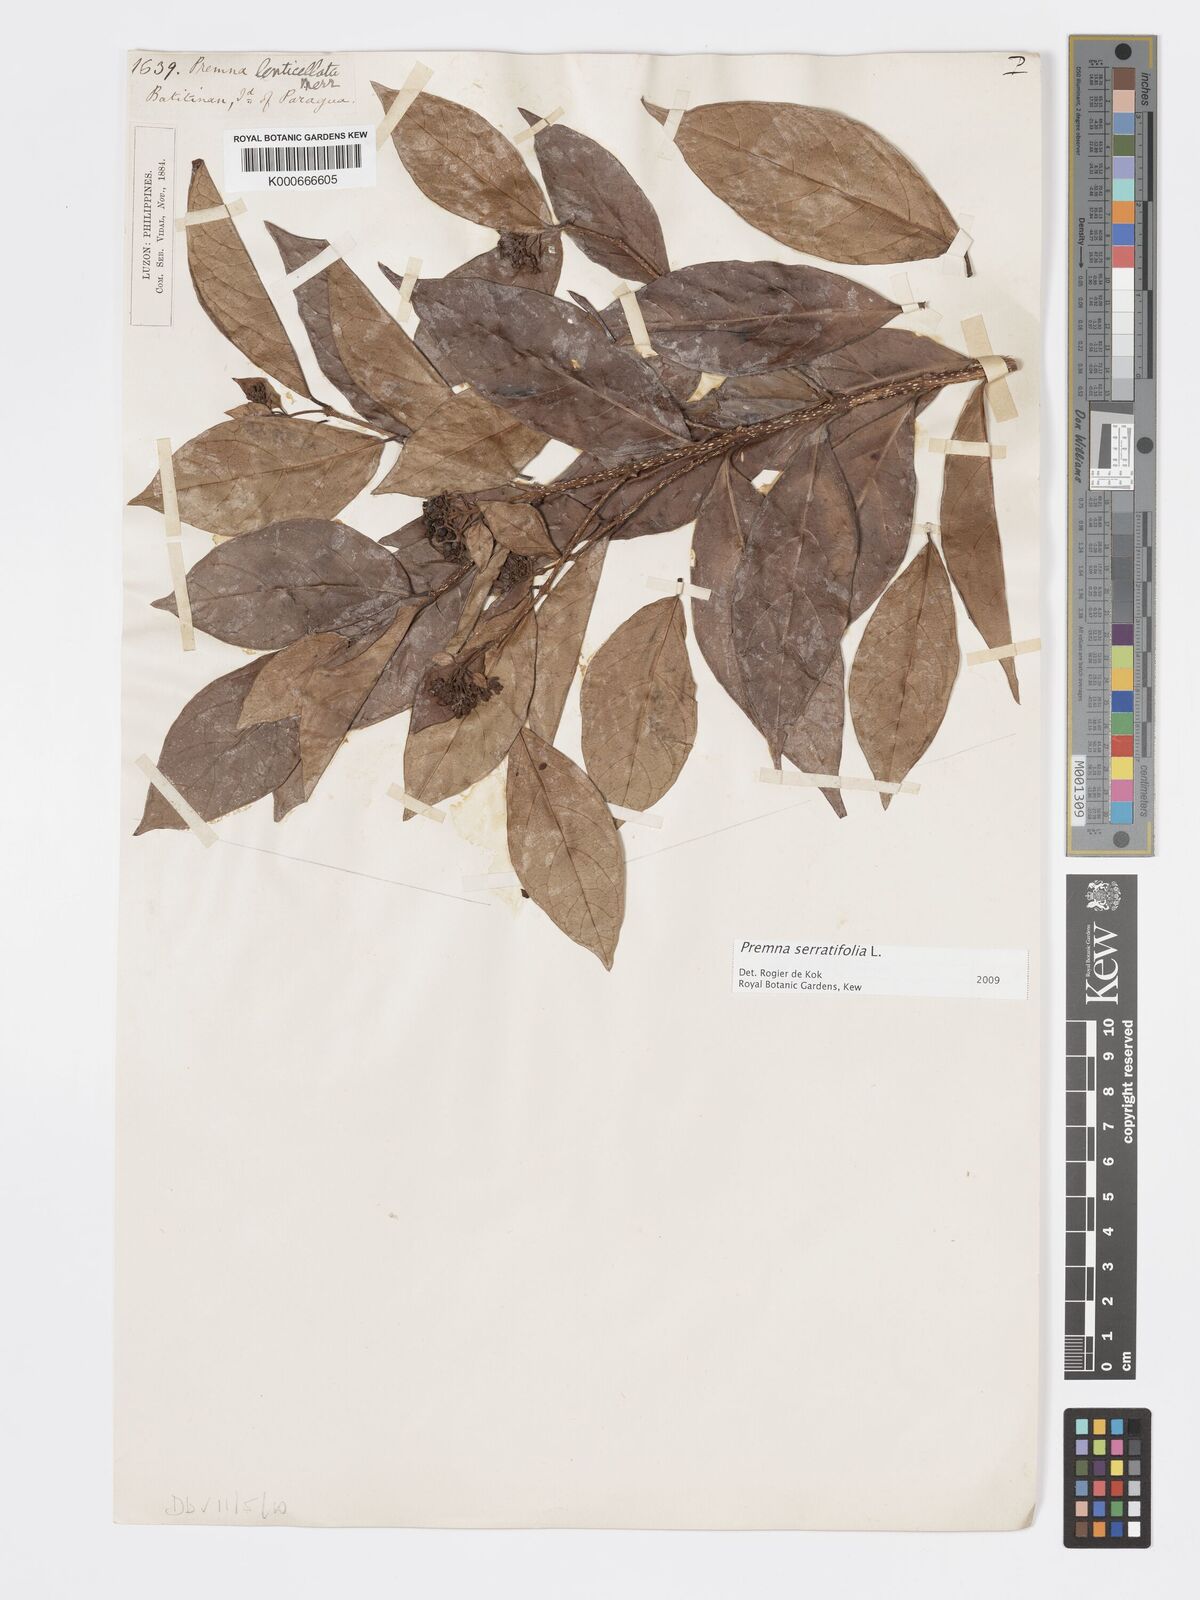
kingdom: Plantae
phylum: Tracheophyta
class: Magnoliopsida
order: Lamiales
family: Lamiaceae
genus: Premna
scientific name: Premna serratifolia
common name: Bastard guelder
